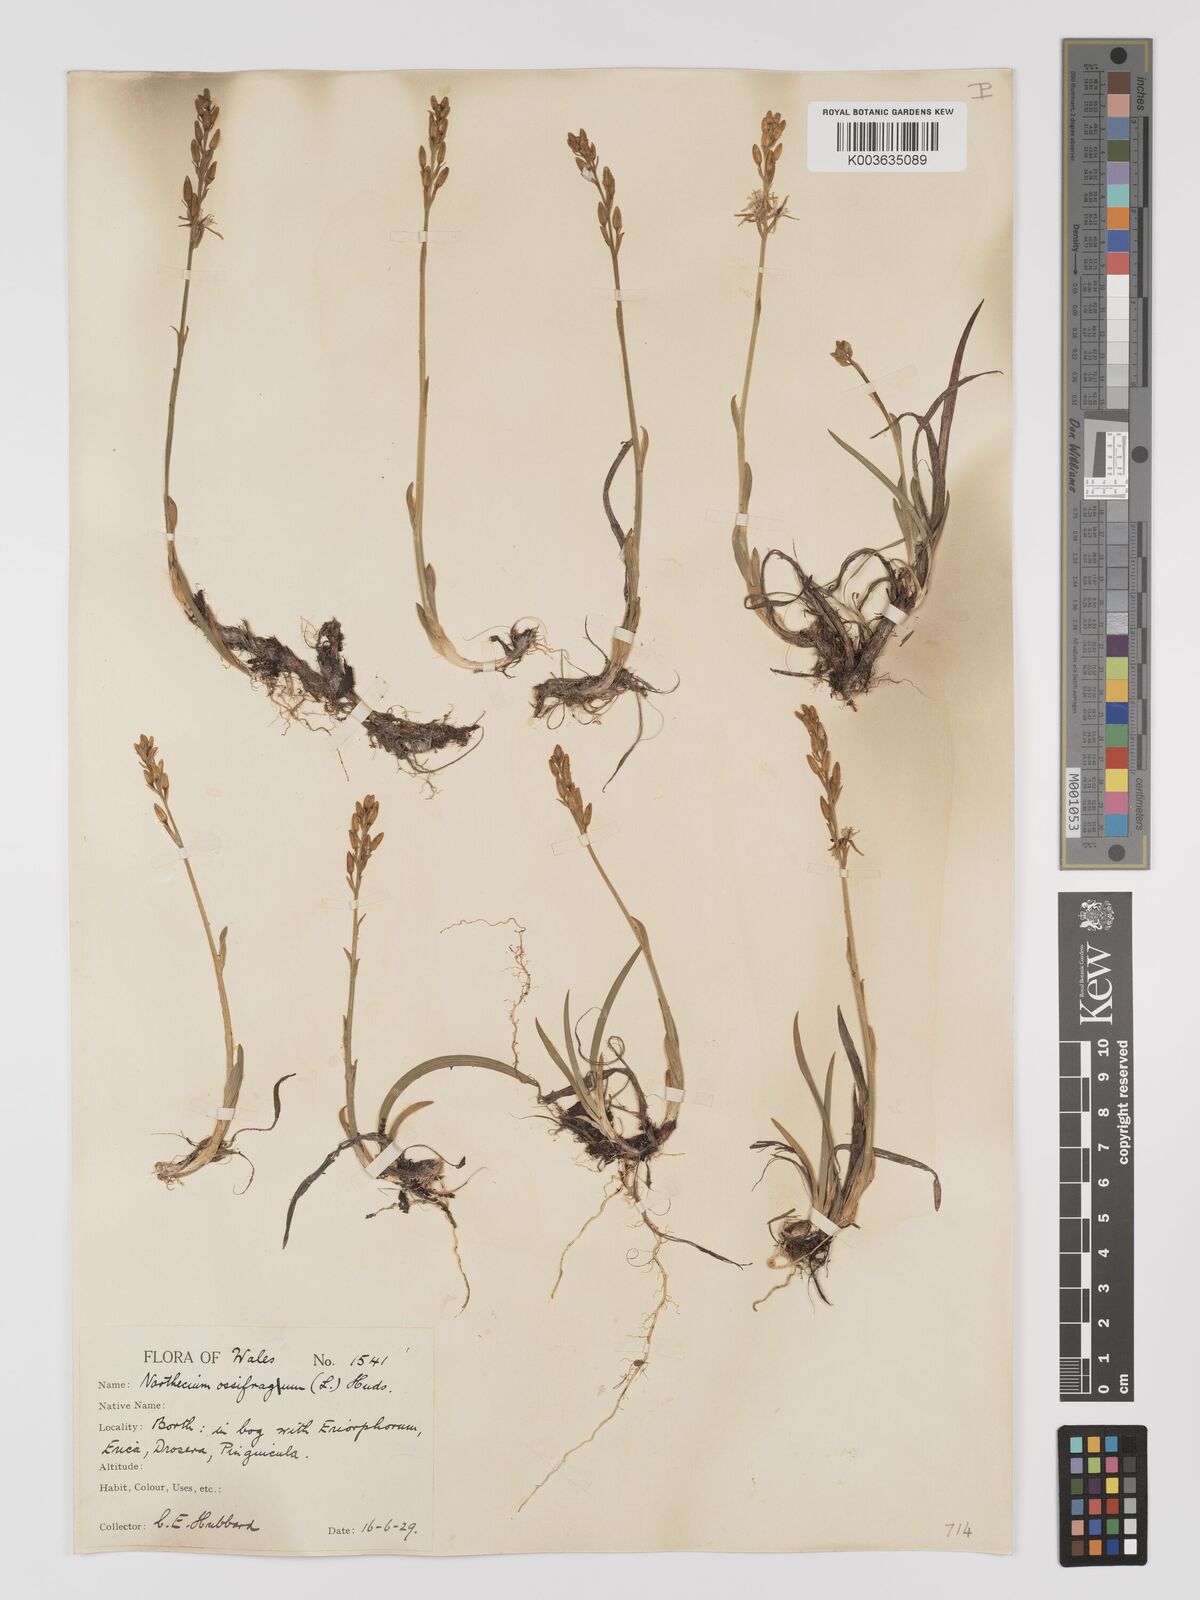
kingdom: Plantae
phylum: Tracheophyta
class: Liliopsida
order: Dioscoreales
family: Nartheciaceae
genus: Narthecium
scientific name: Narthecium
